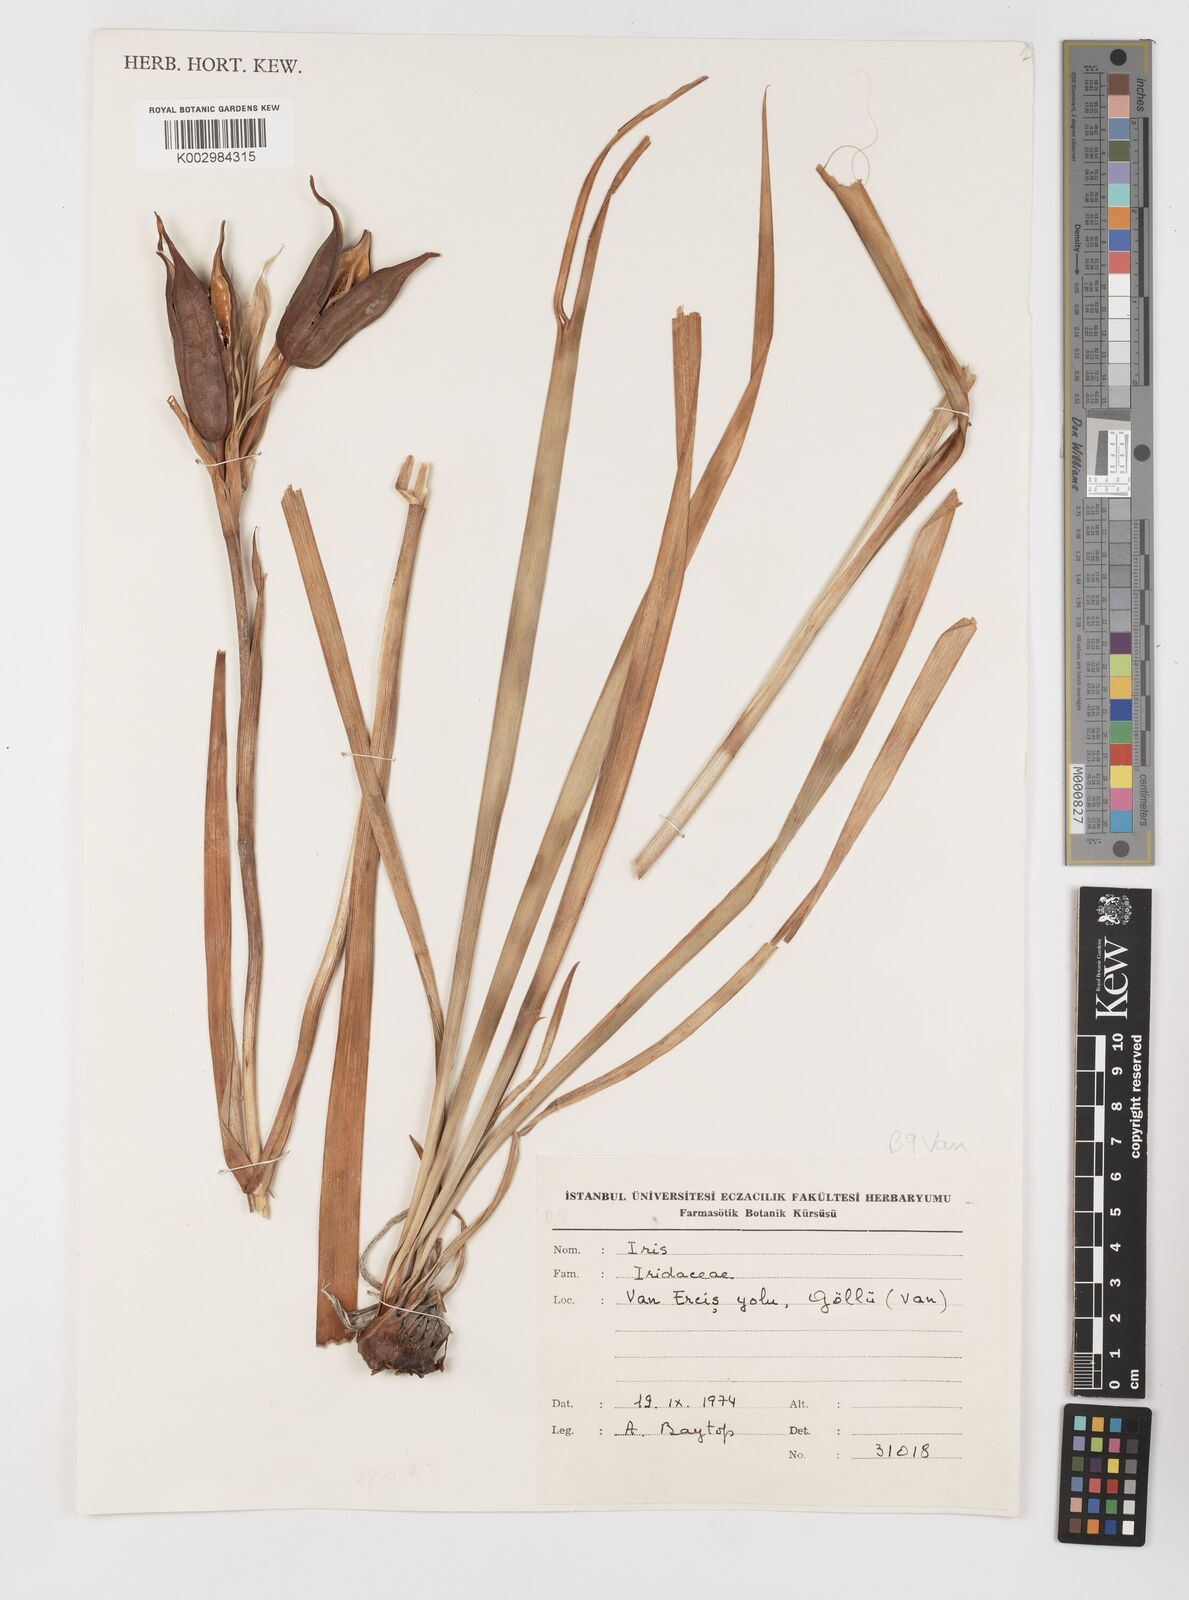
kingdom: Plantae
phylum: Tracheophyta
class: Liliopsida
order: Asparagales
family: Iridaceae
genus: Iris
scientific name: Iris spuria
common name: Blue iris
